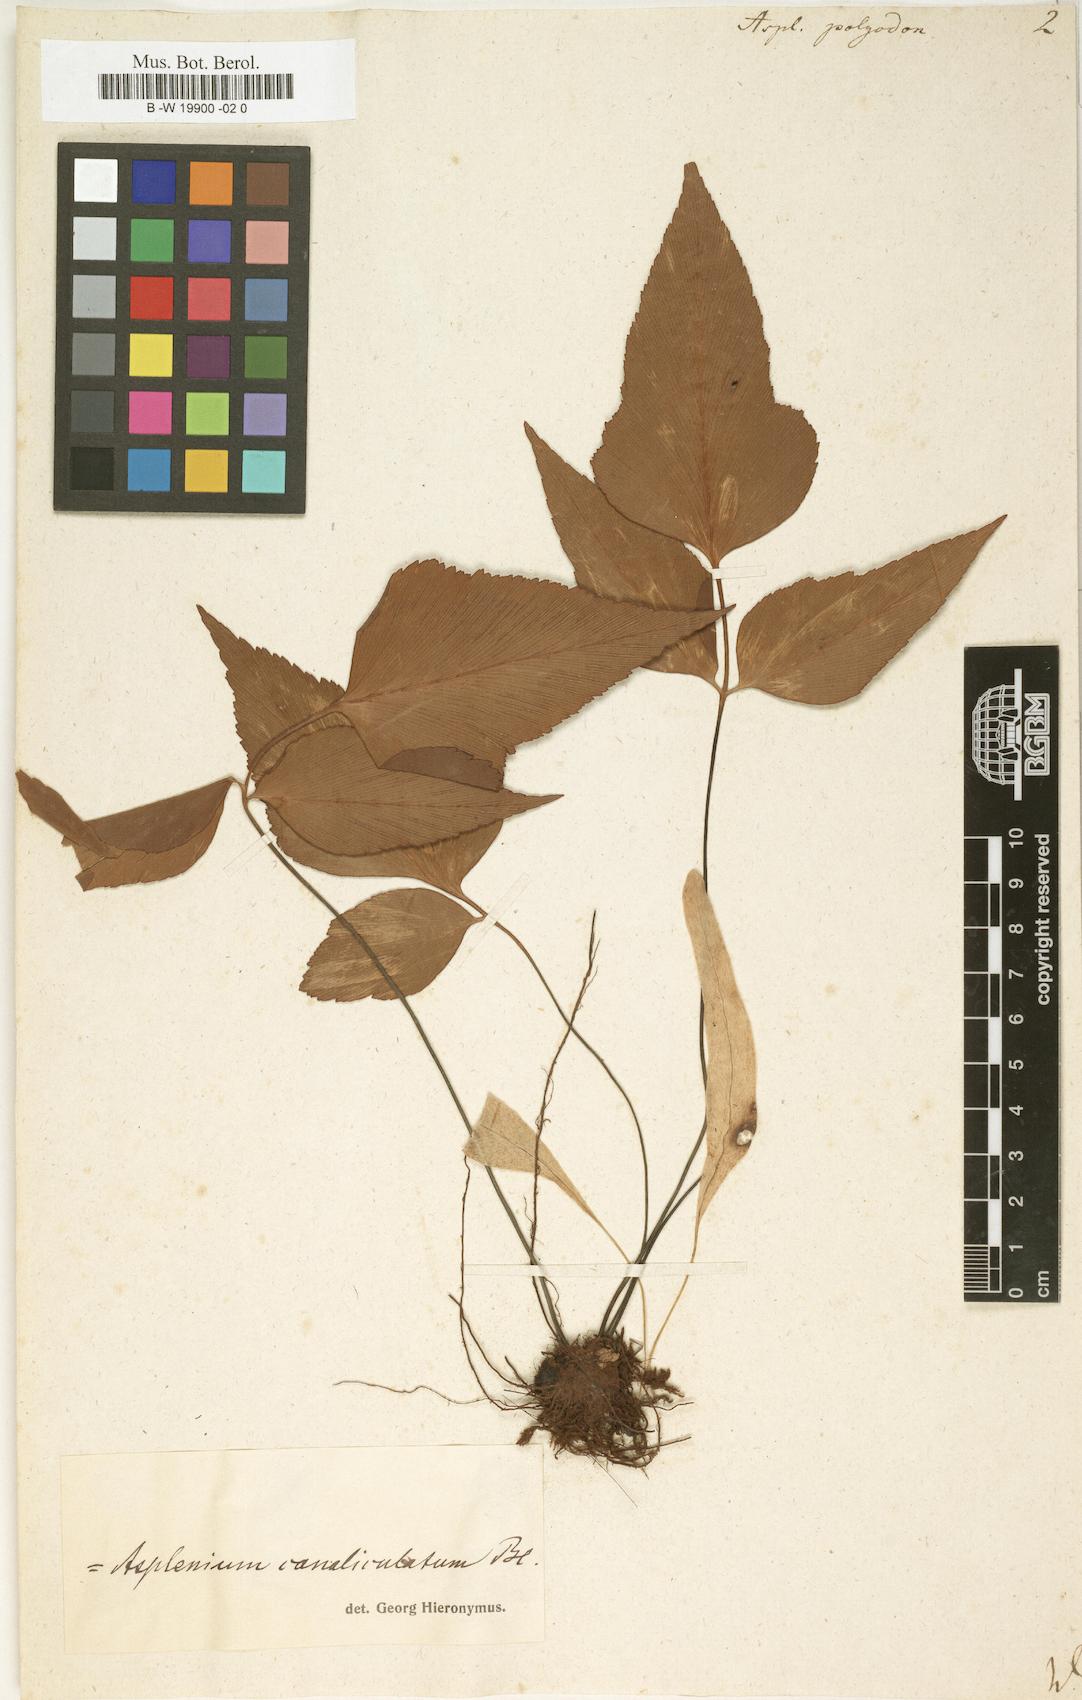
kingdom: Plantae
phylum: Tracheophyta
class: Polypodiopsida
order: Polypodiales
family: Aspleniaceae
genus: Asplenium
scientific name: Asplenium polyodon
